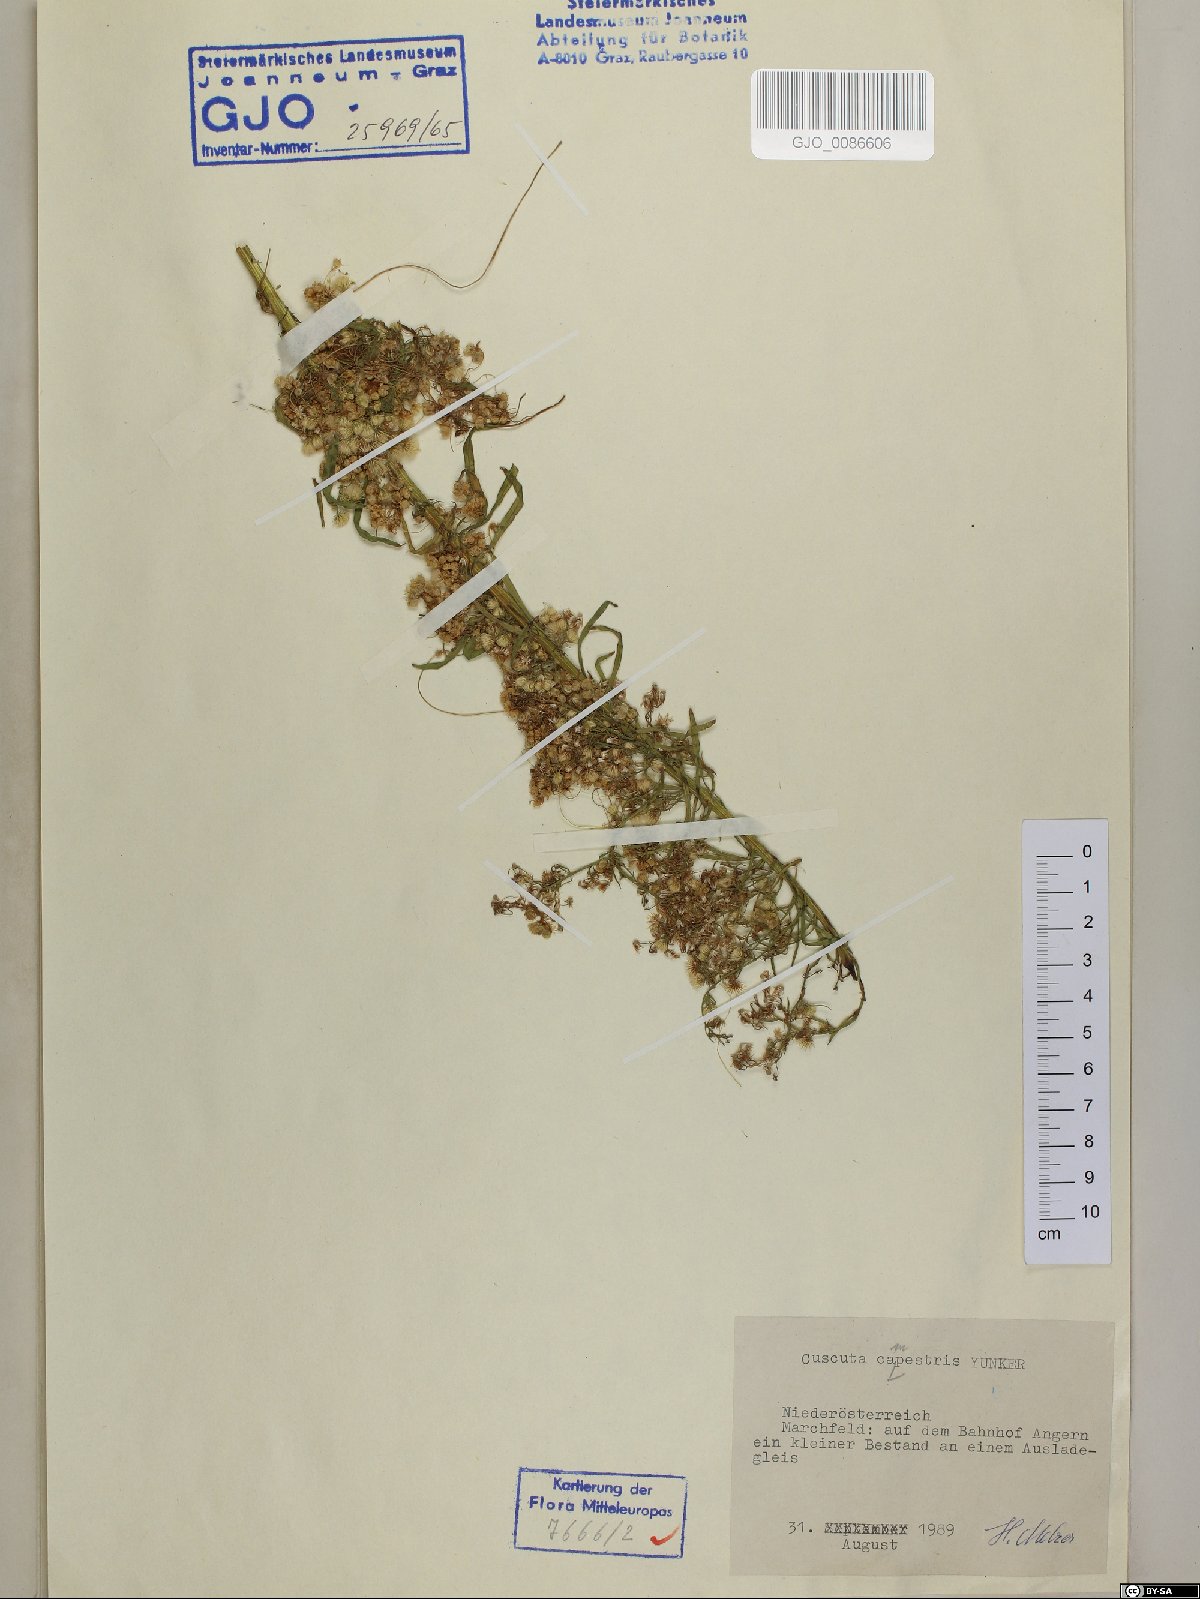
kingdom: Plantae
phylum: Tracheophyta
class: Magnoliopsida
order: Solanales
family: Convolvulaceae
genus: Cuscuta
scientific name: Cuscuta campestris
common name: Yellow dodder
